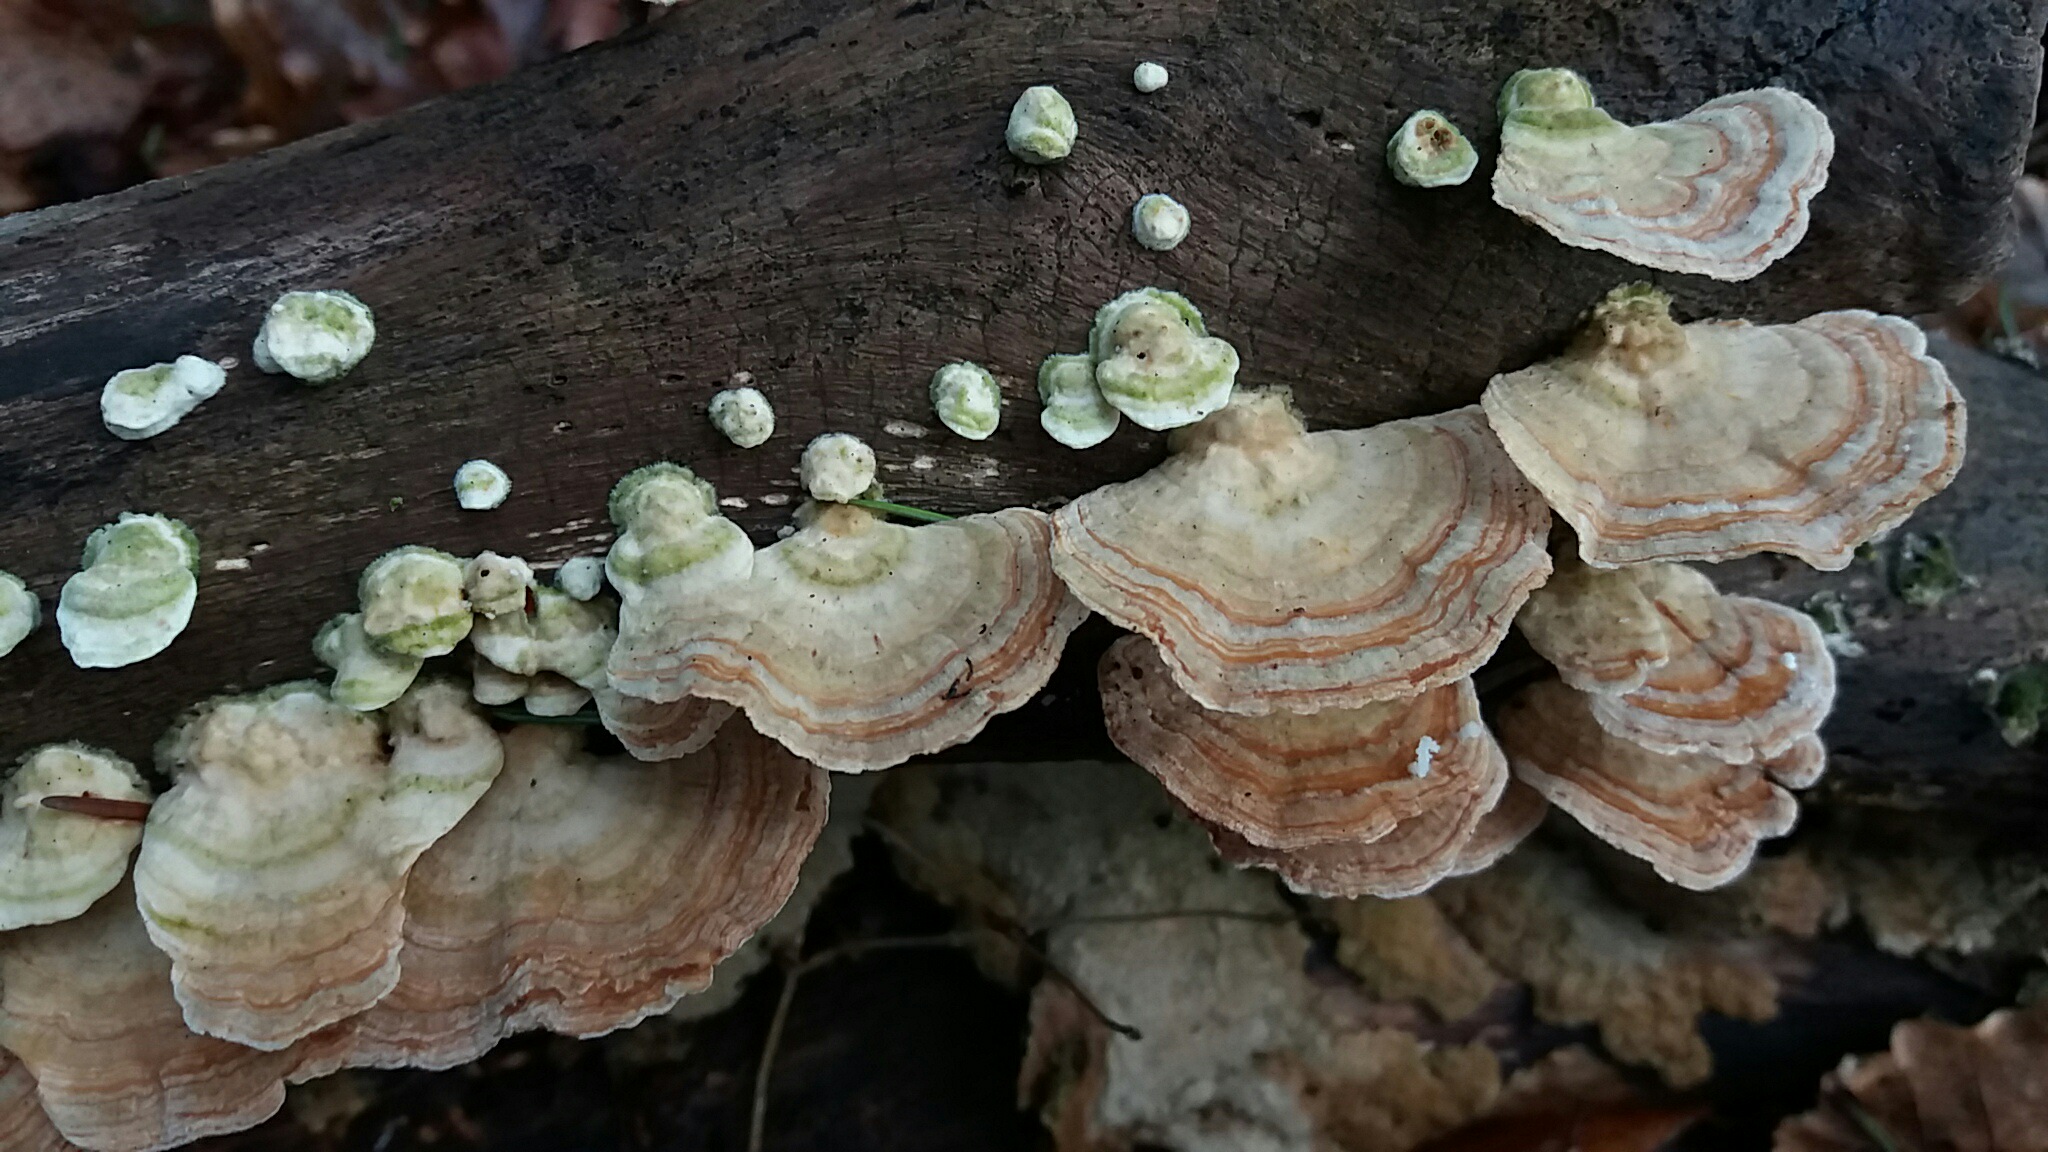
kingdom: Fungi
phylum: Basidiomycota
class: Agaricomycetes
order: Polyporales
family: Polyporaceae
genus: Trametes
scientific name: Trametes versicolor
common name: broget læderporesvamp
